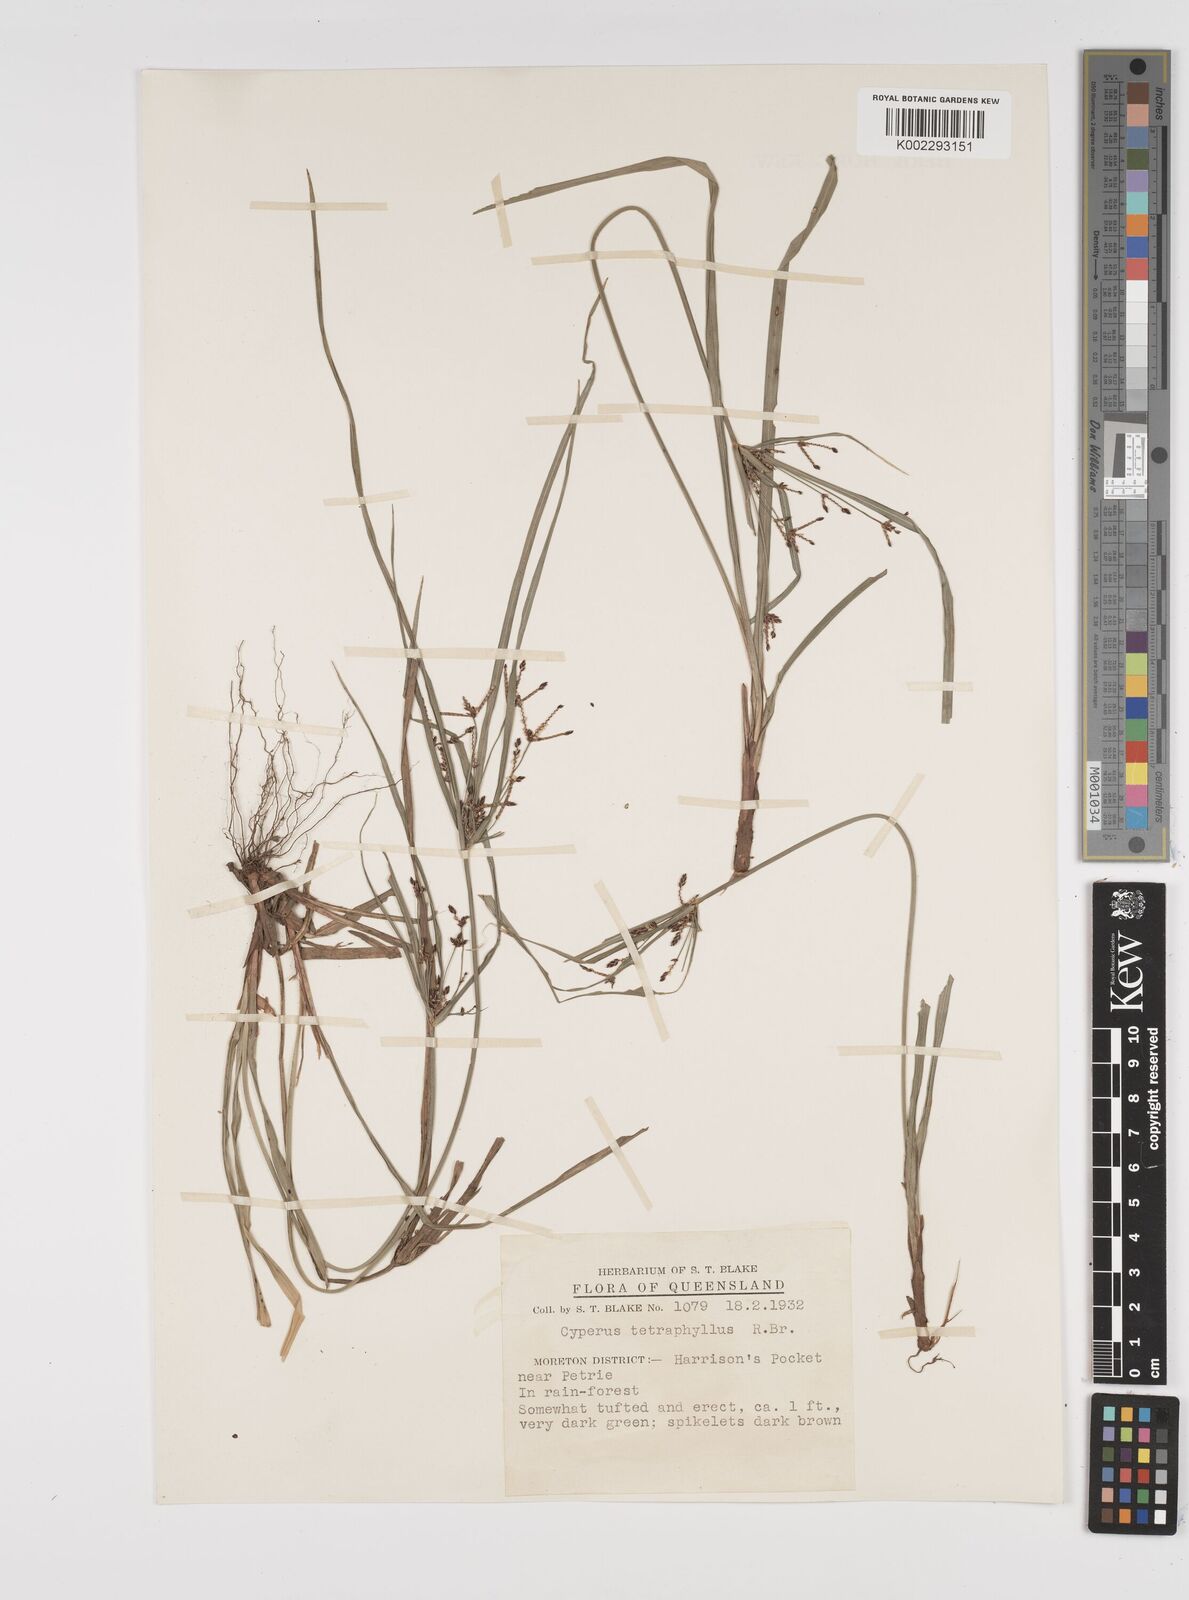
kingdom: Plantae
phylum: Tracheophyta
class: Liliopsida
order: Poales
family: Cyperaceae
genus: Cyperus
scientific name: Cyperus tetraphyllus
